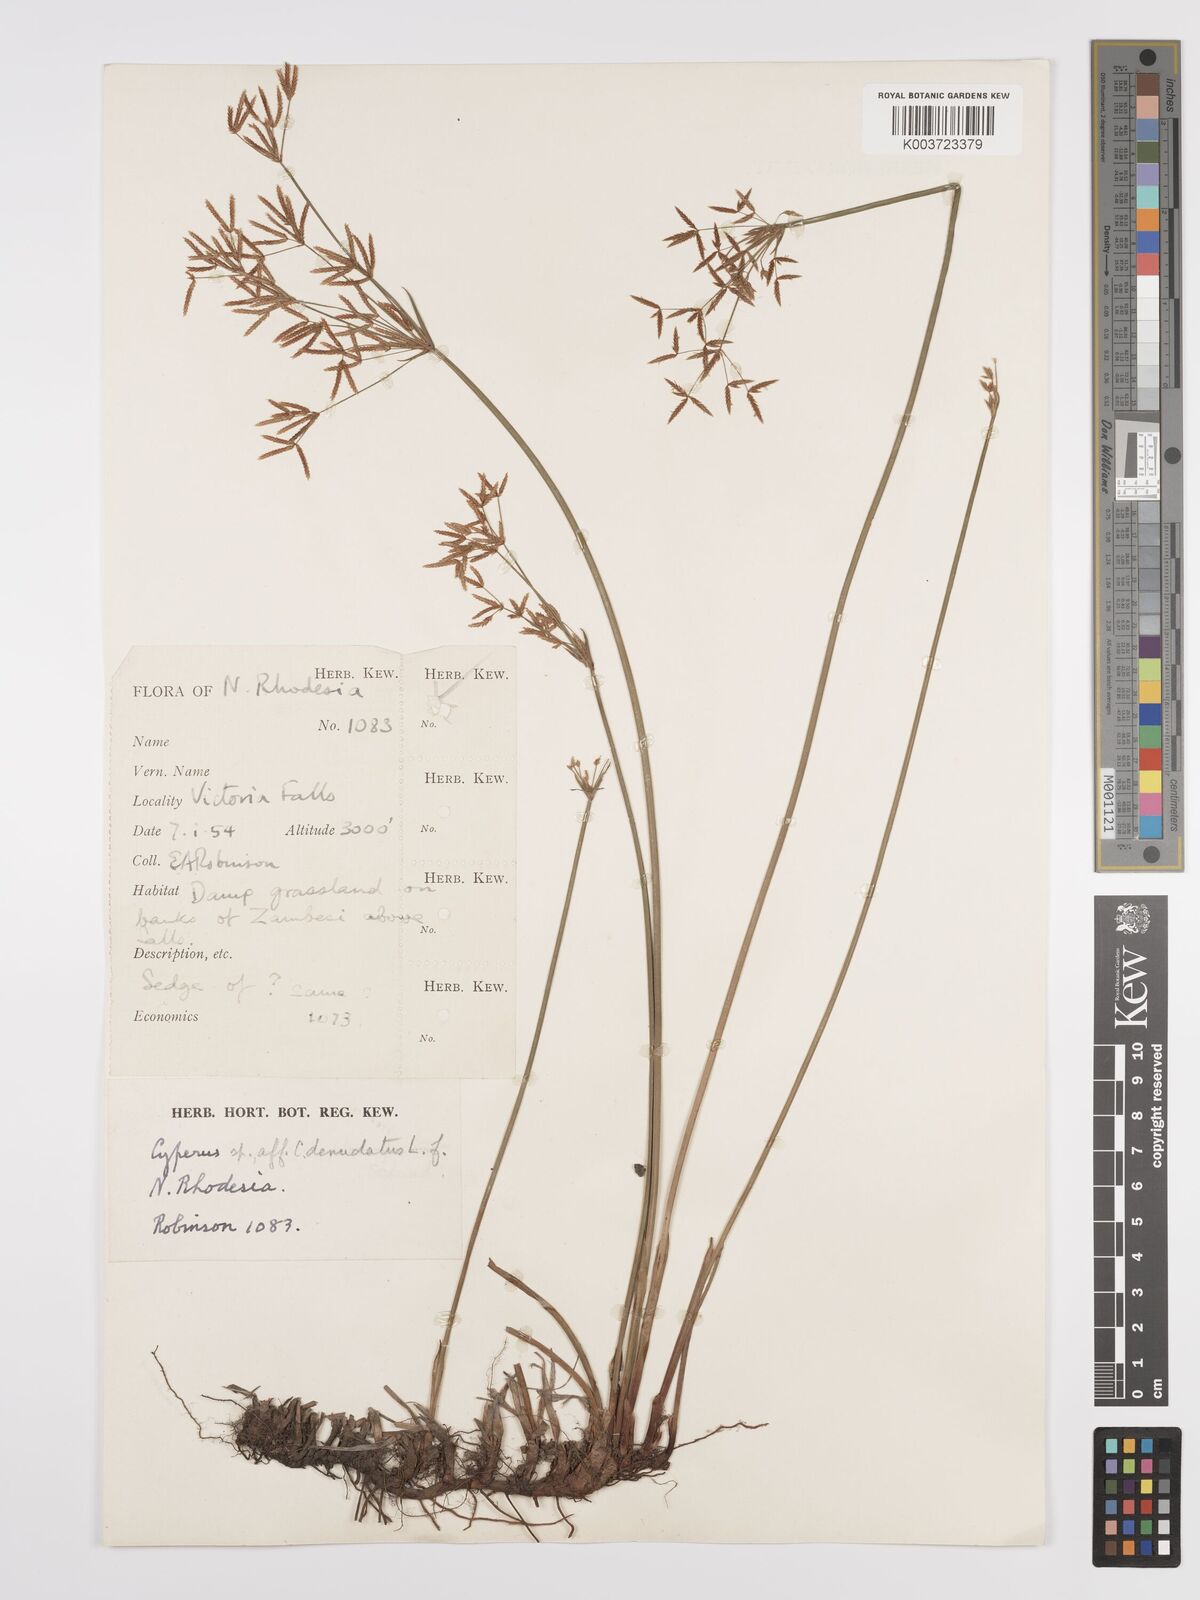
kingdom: Plantae
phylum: Tracheophyta
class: Liliopsida
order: Poales
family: Cyperaceae
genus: Cyperus
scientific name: Cyperus denudatus
